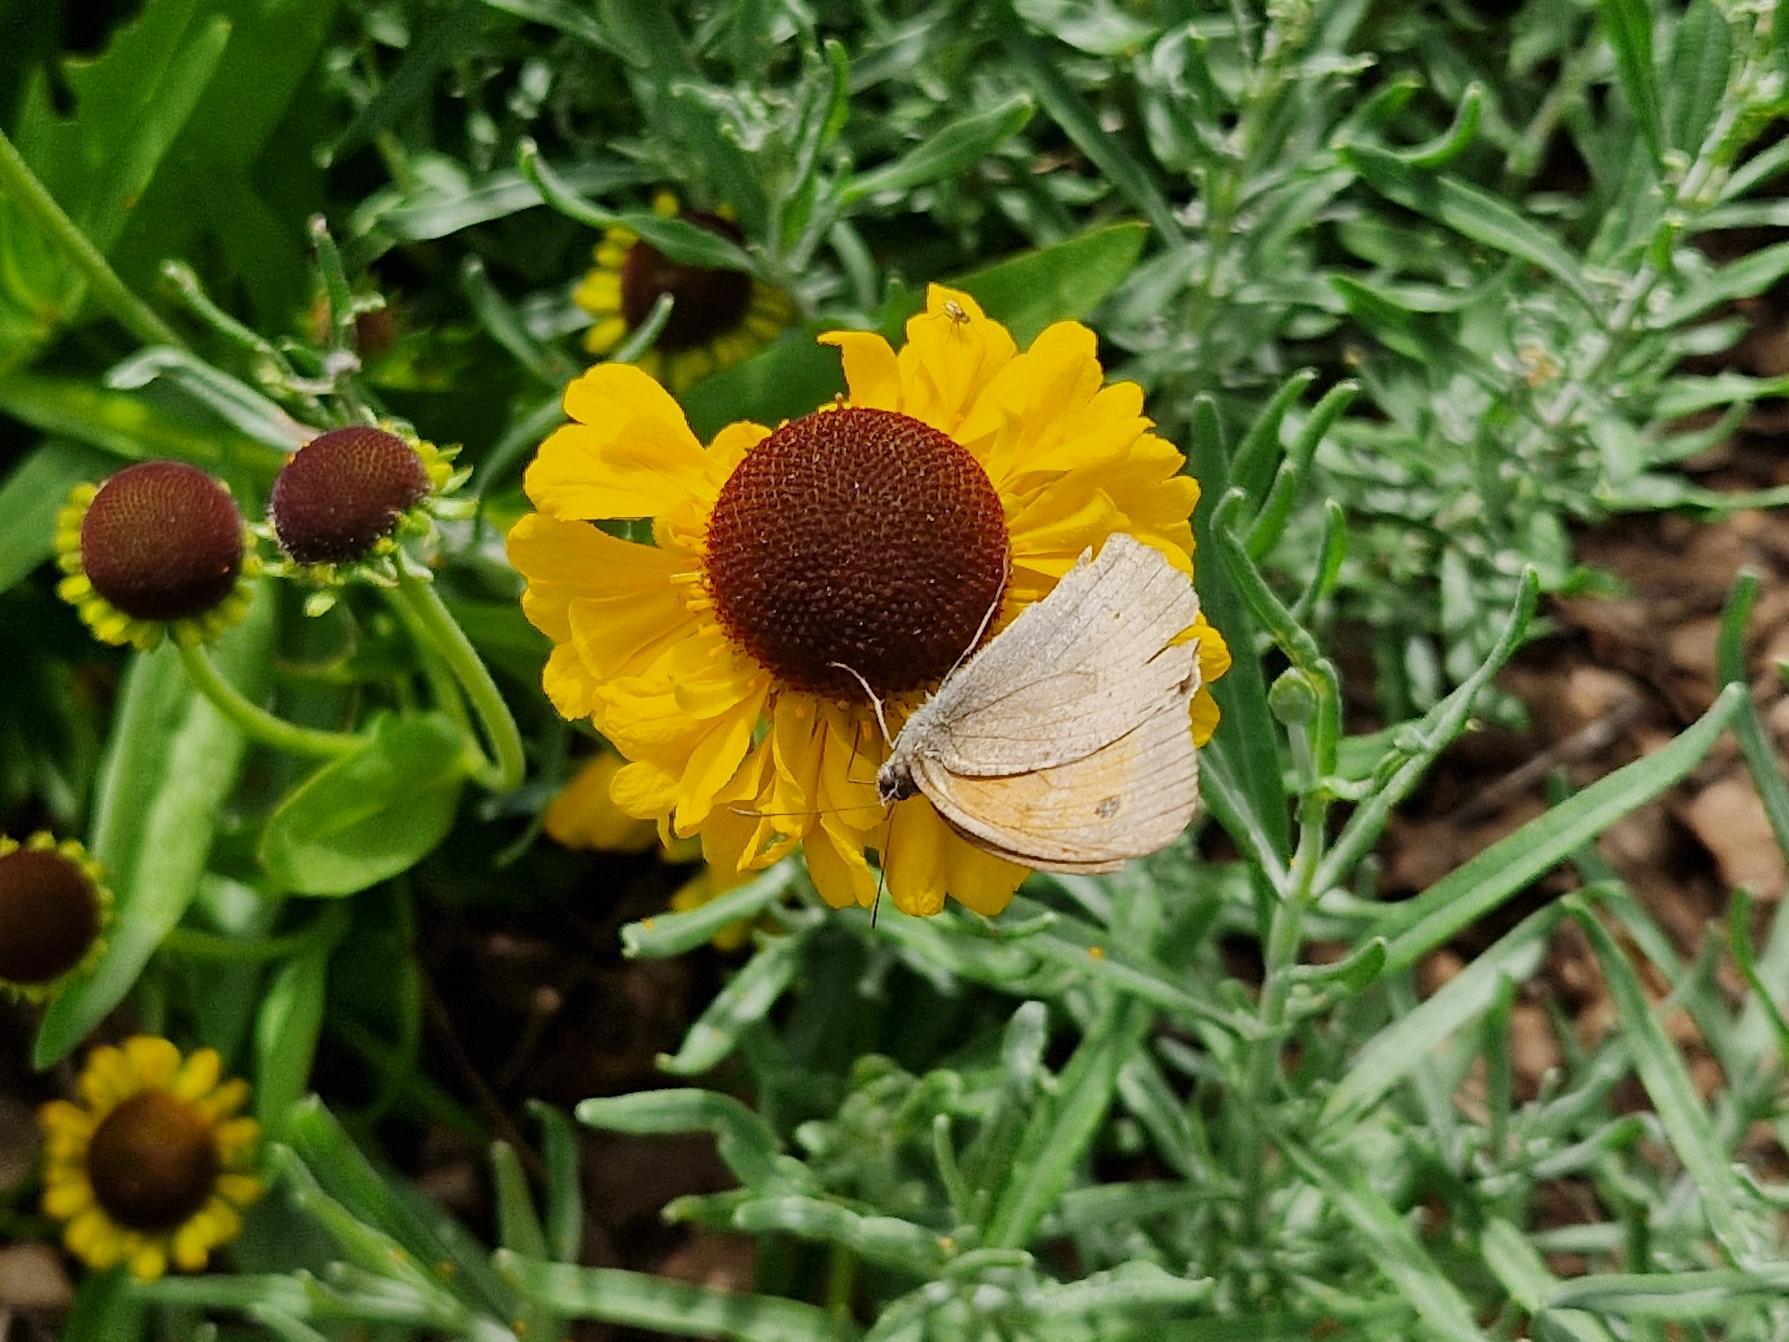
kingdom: Animalia
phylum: Arthropoda
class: Insecta
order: Lepidoptera
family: Nymphalidae
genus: Maniola
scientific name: Maniola jurtina
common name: Græsrandøje
